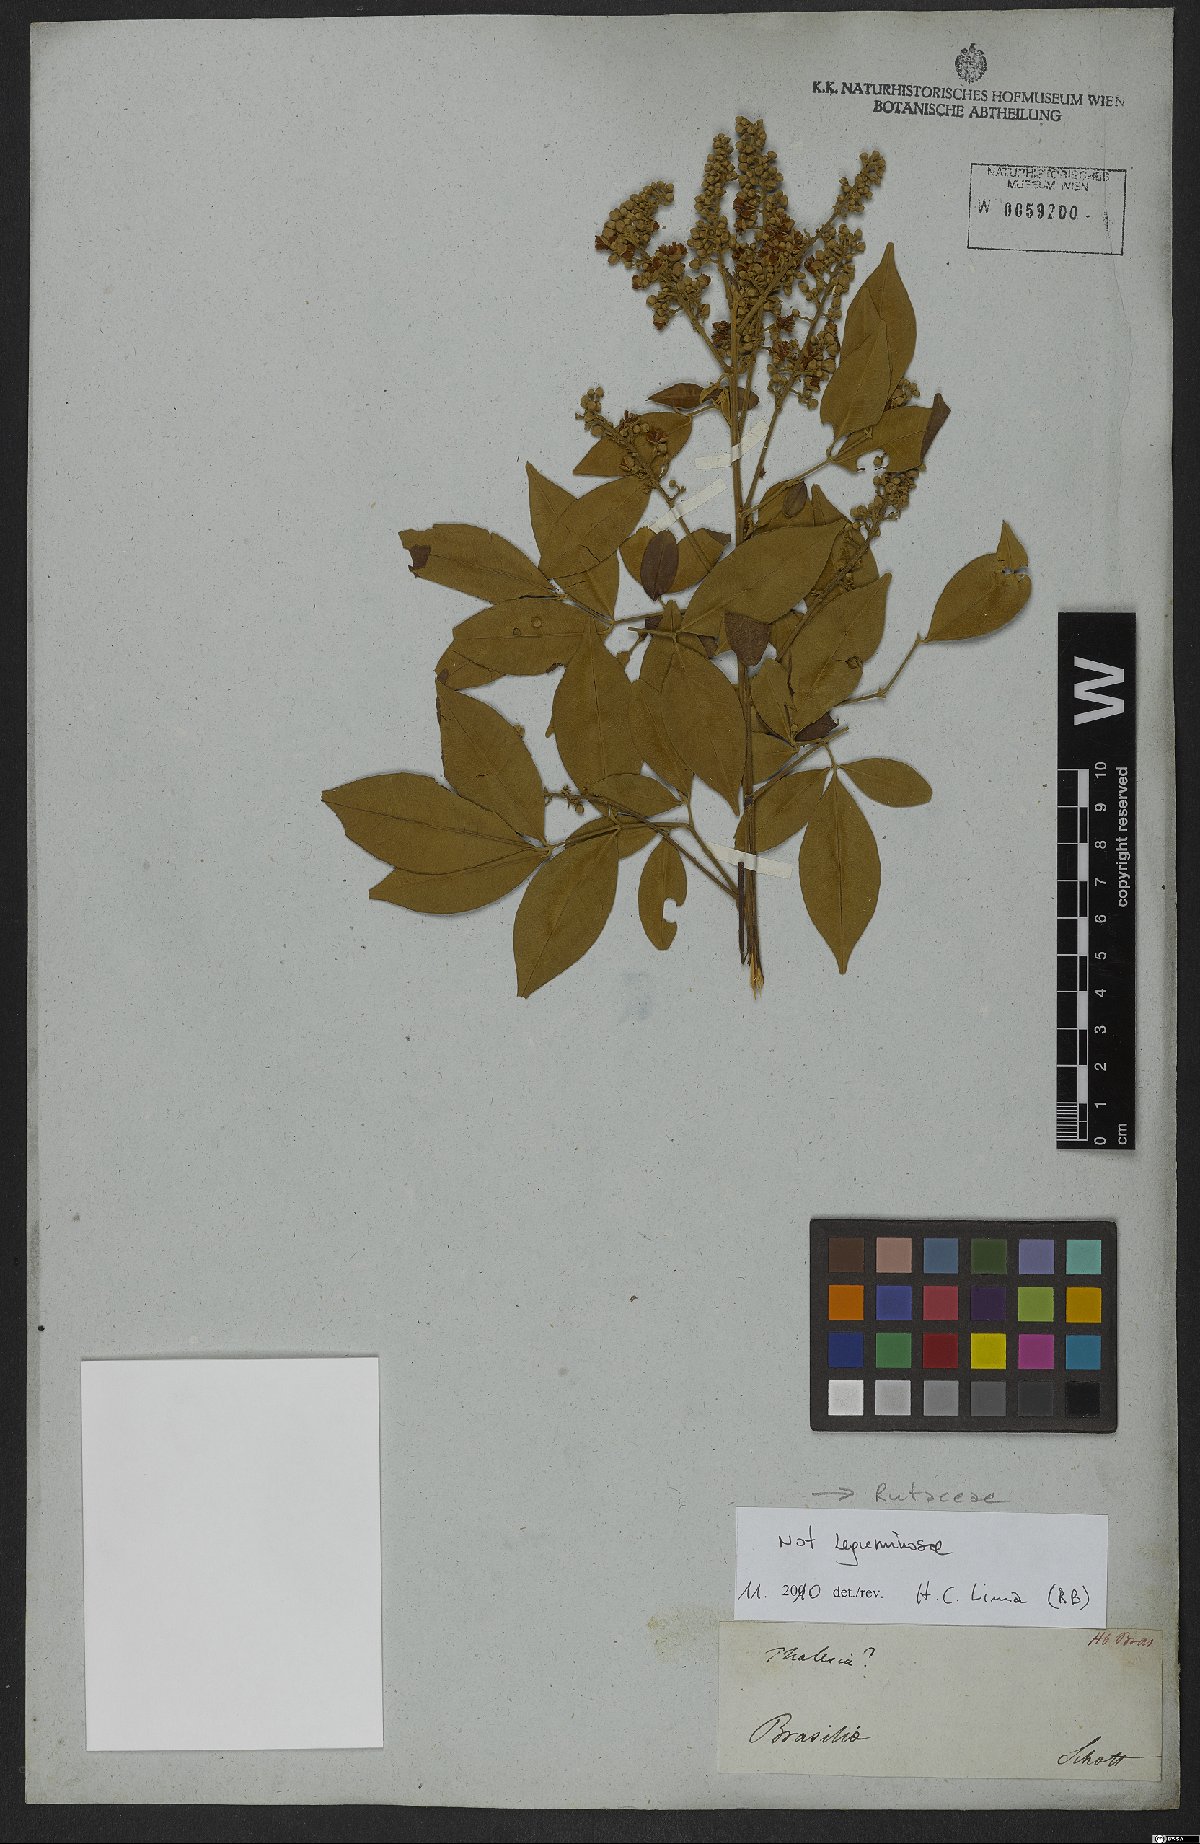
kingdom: Plantae
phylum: Tracheophyta
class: Magnoliopsida
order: Sapindales
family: Rutaceae
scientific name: Rutaceae
